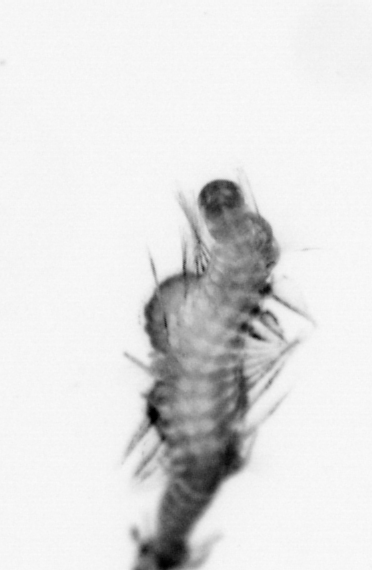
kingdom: Animalia
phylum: Annelida
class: Polychaeta
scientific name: Polychaeta
